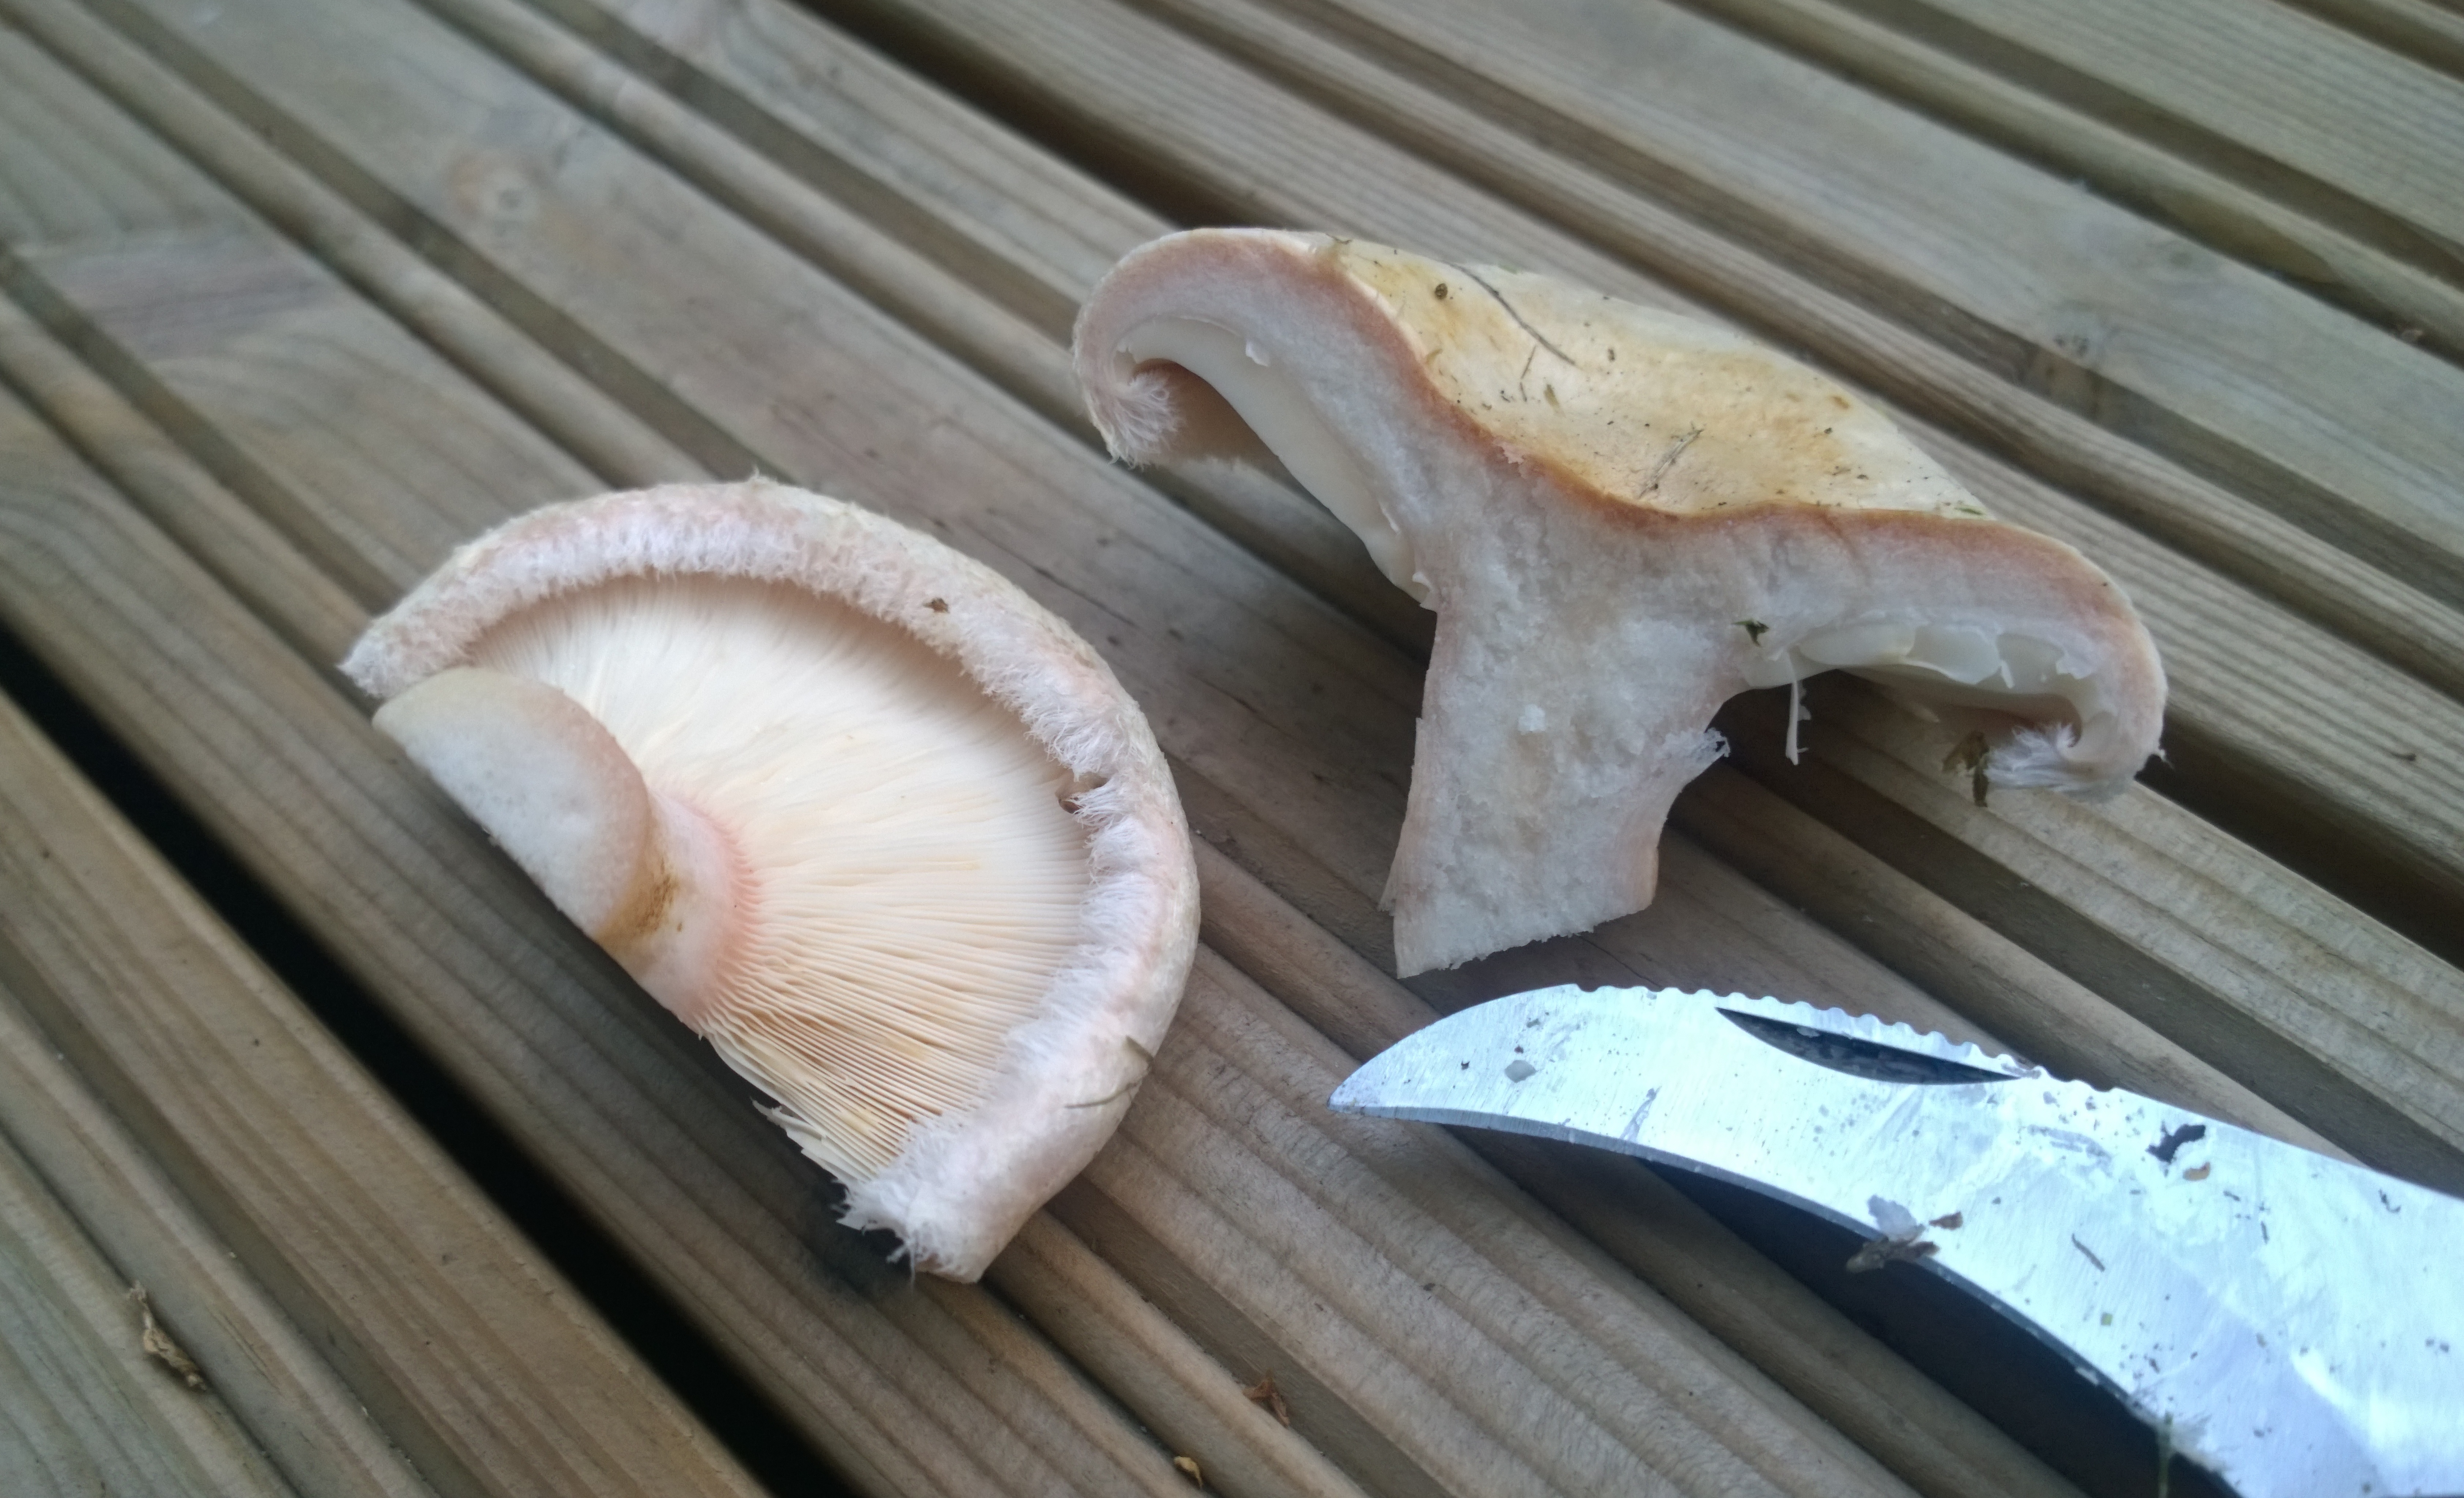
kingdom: Fungi
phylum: Basidiomycota
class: Agaricomycetes
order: Russulales
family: Russulaceae
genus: Lactarius
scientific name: Lactarius pubescens
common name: Bearded milkcap
